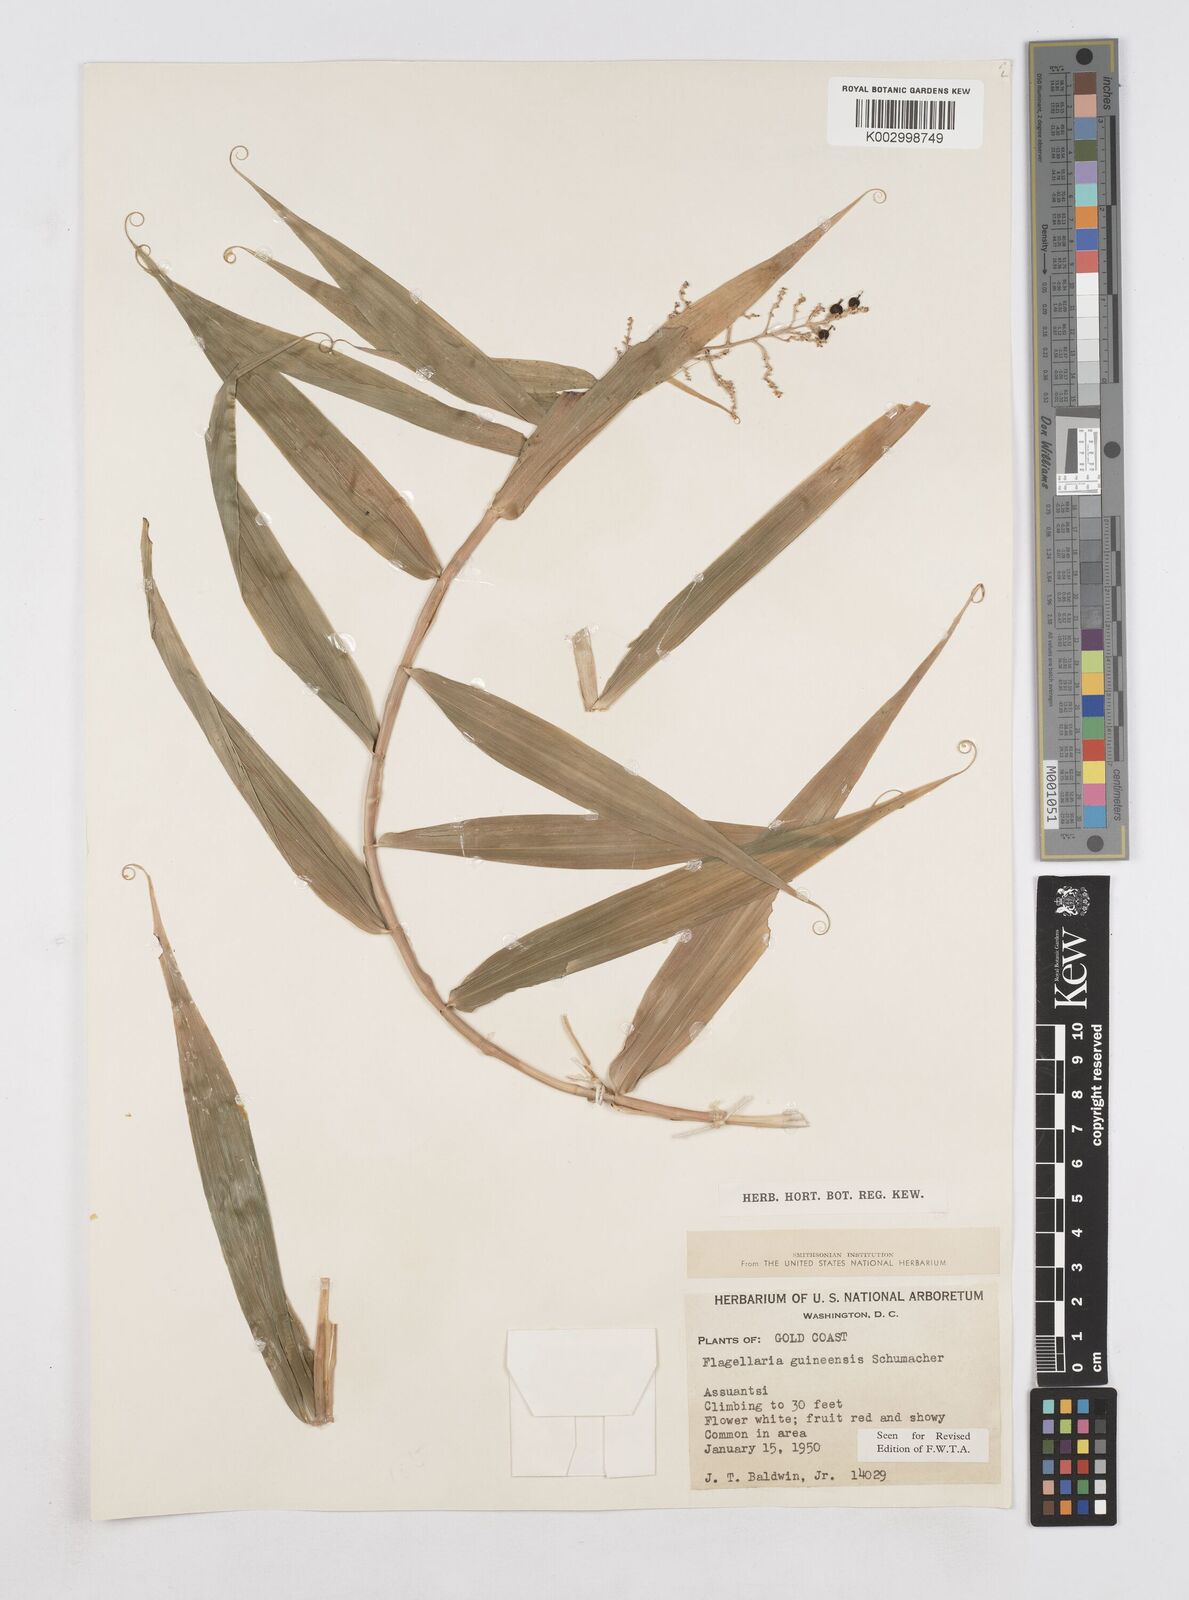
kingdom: Plantae
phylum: Tracheophyta
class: Liliopsida
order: Poales
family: Flagellariaceae
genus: Flagellaria
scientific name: Flagellaria guineensis
